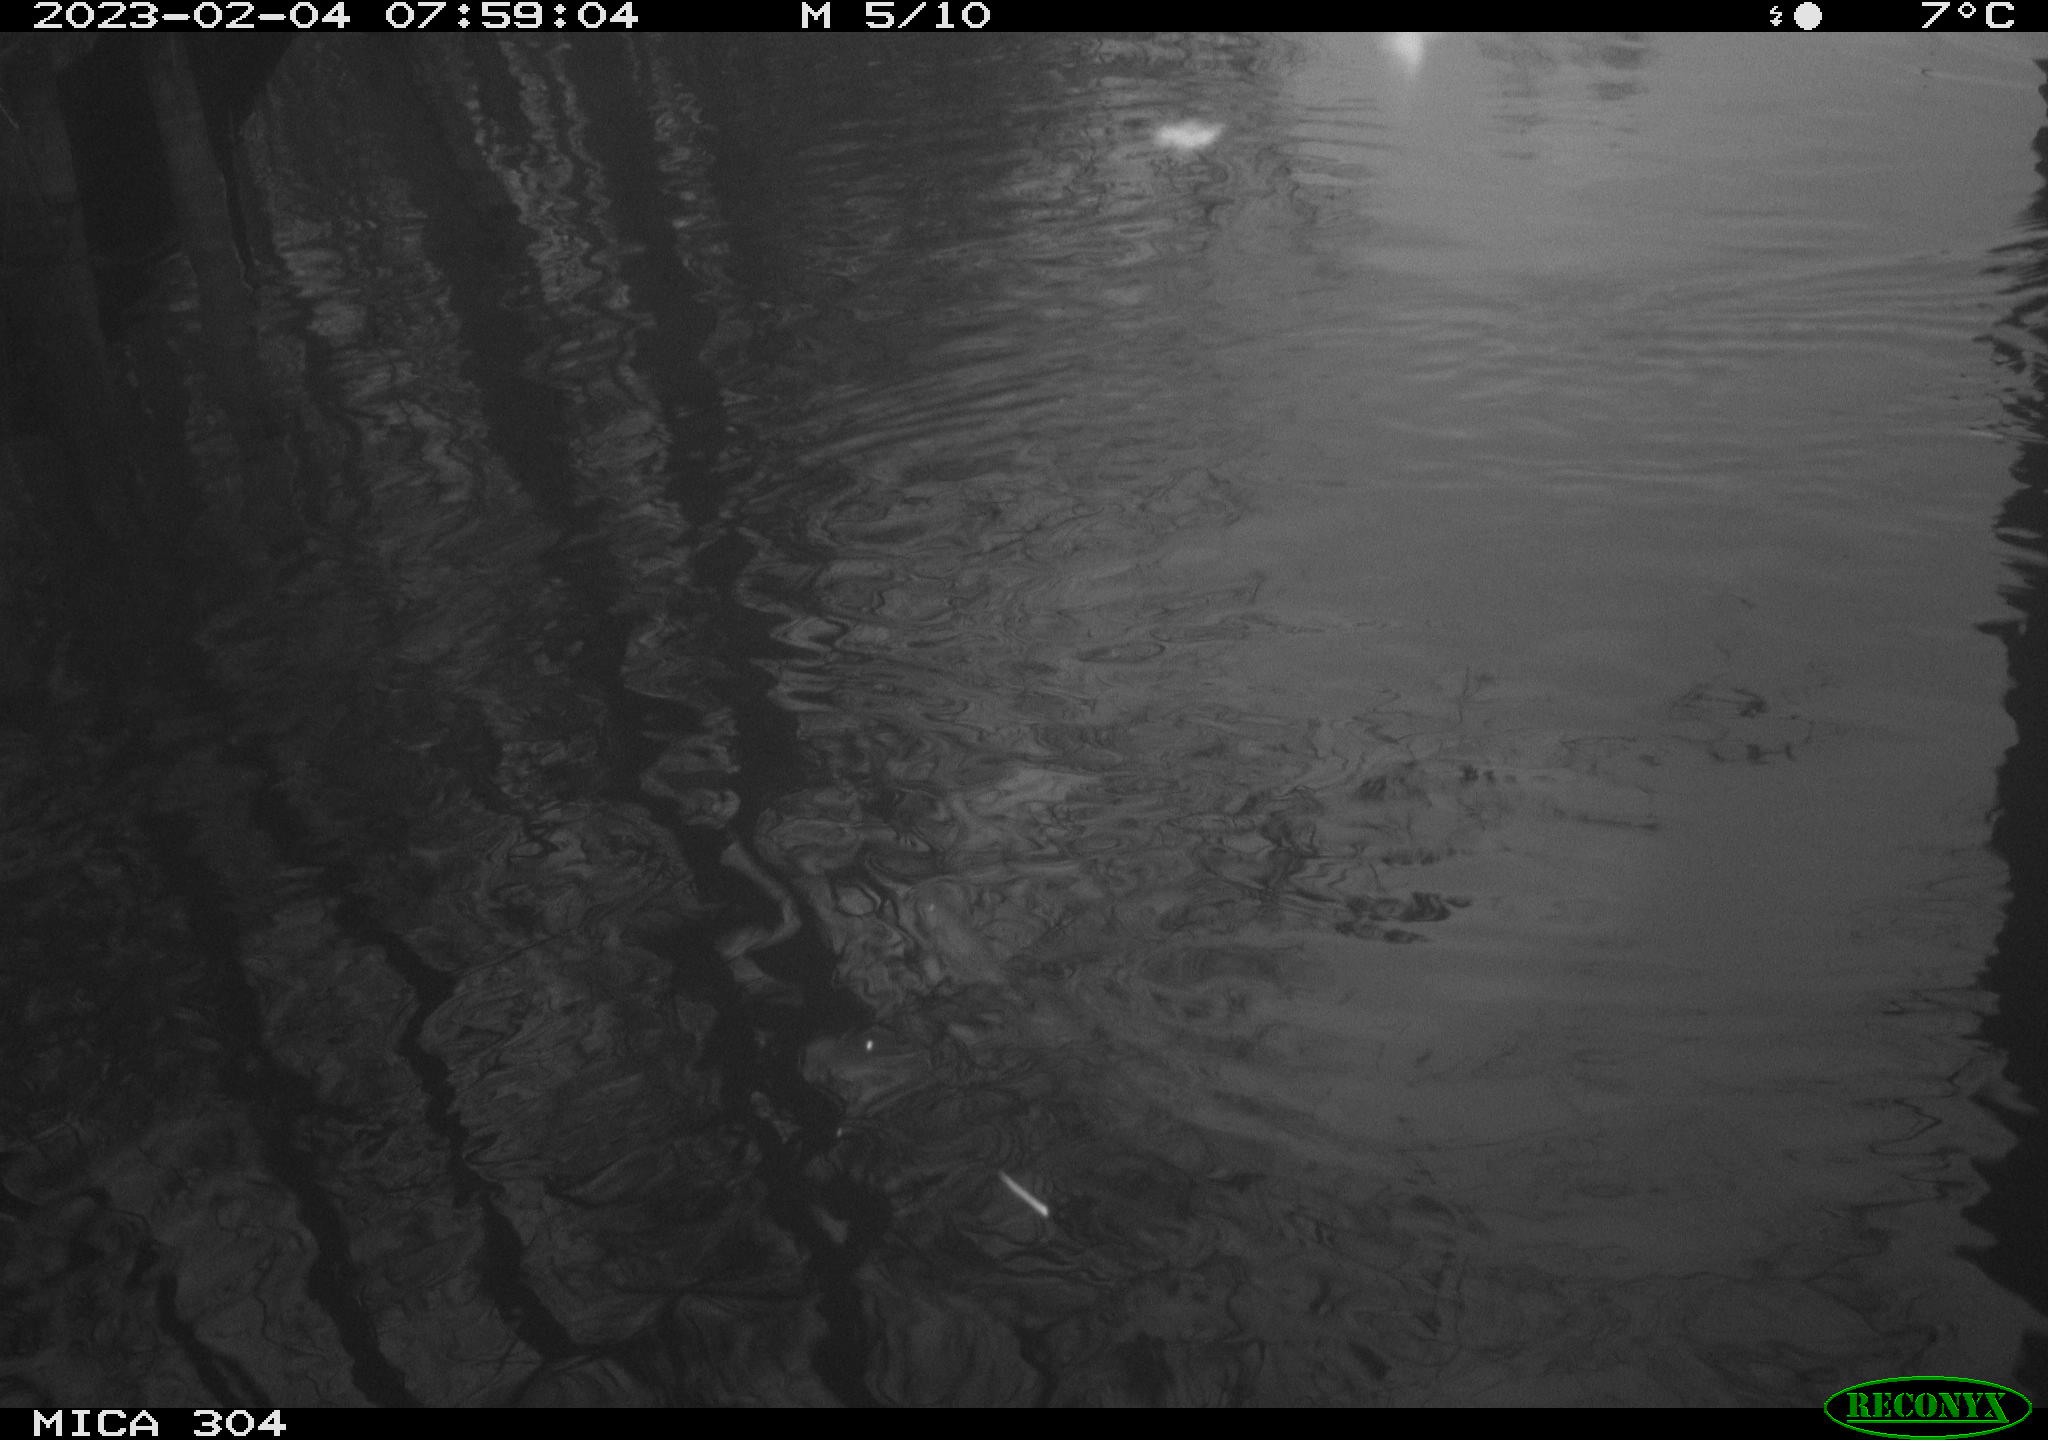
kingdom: Animalia
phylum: Chordata
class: Aves
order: Anseriformes
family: Anatidae
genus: Anas
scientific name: Anas
